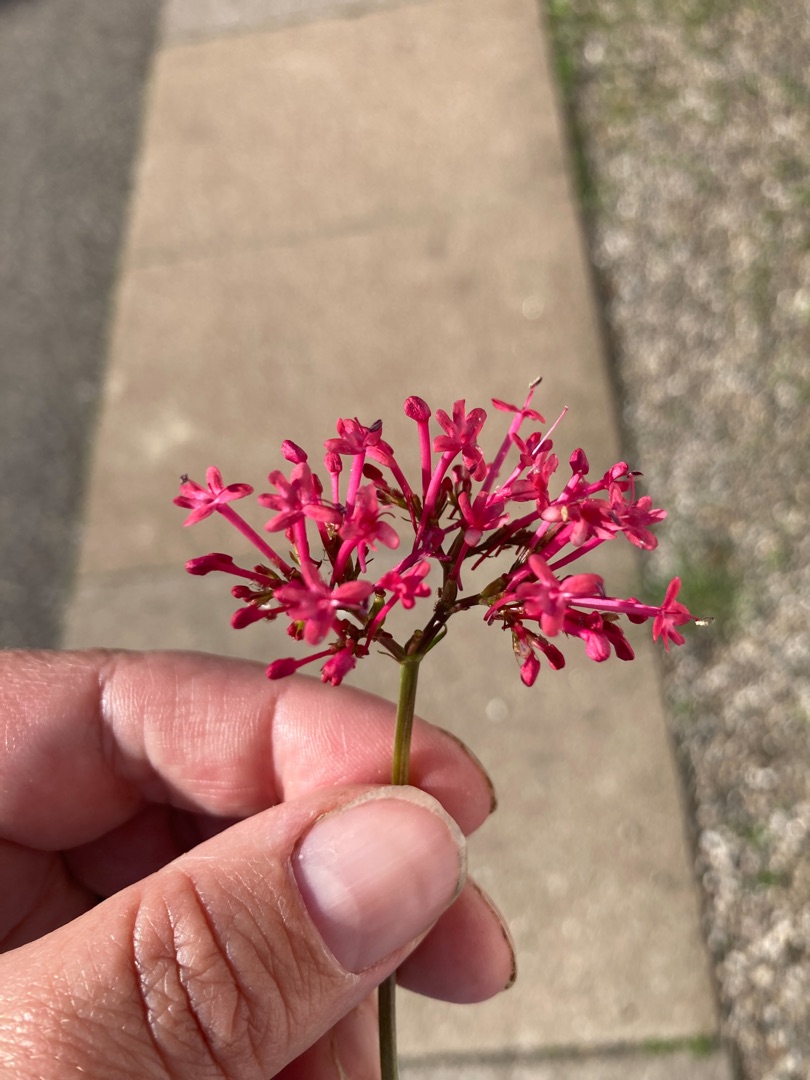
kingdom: Plantae
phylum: Tracheophyta
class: Magnoliopsida
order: Dipsacales
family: Caprifoliaceae
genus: Centranthus
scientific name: Centranthus ruber
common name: Sporebaldrian
